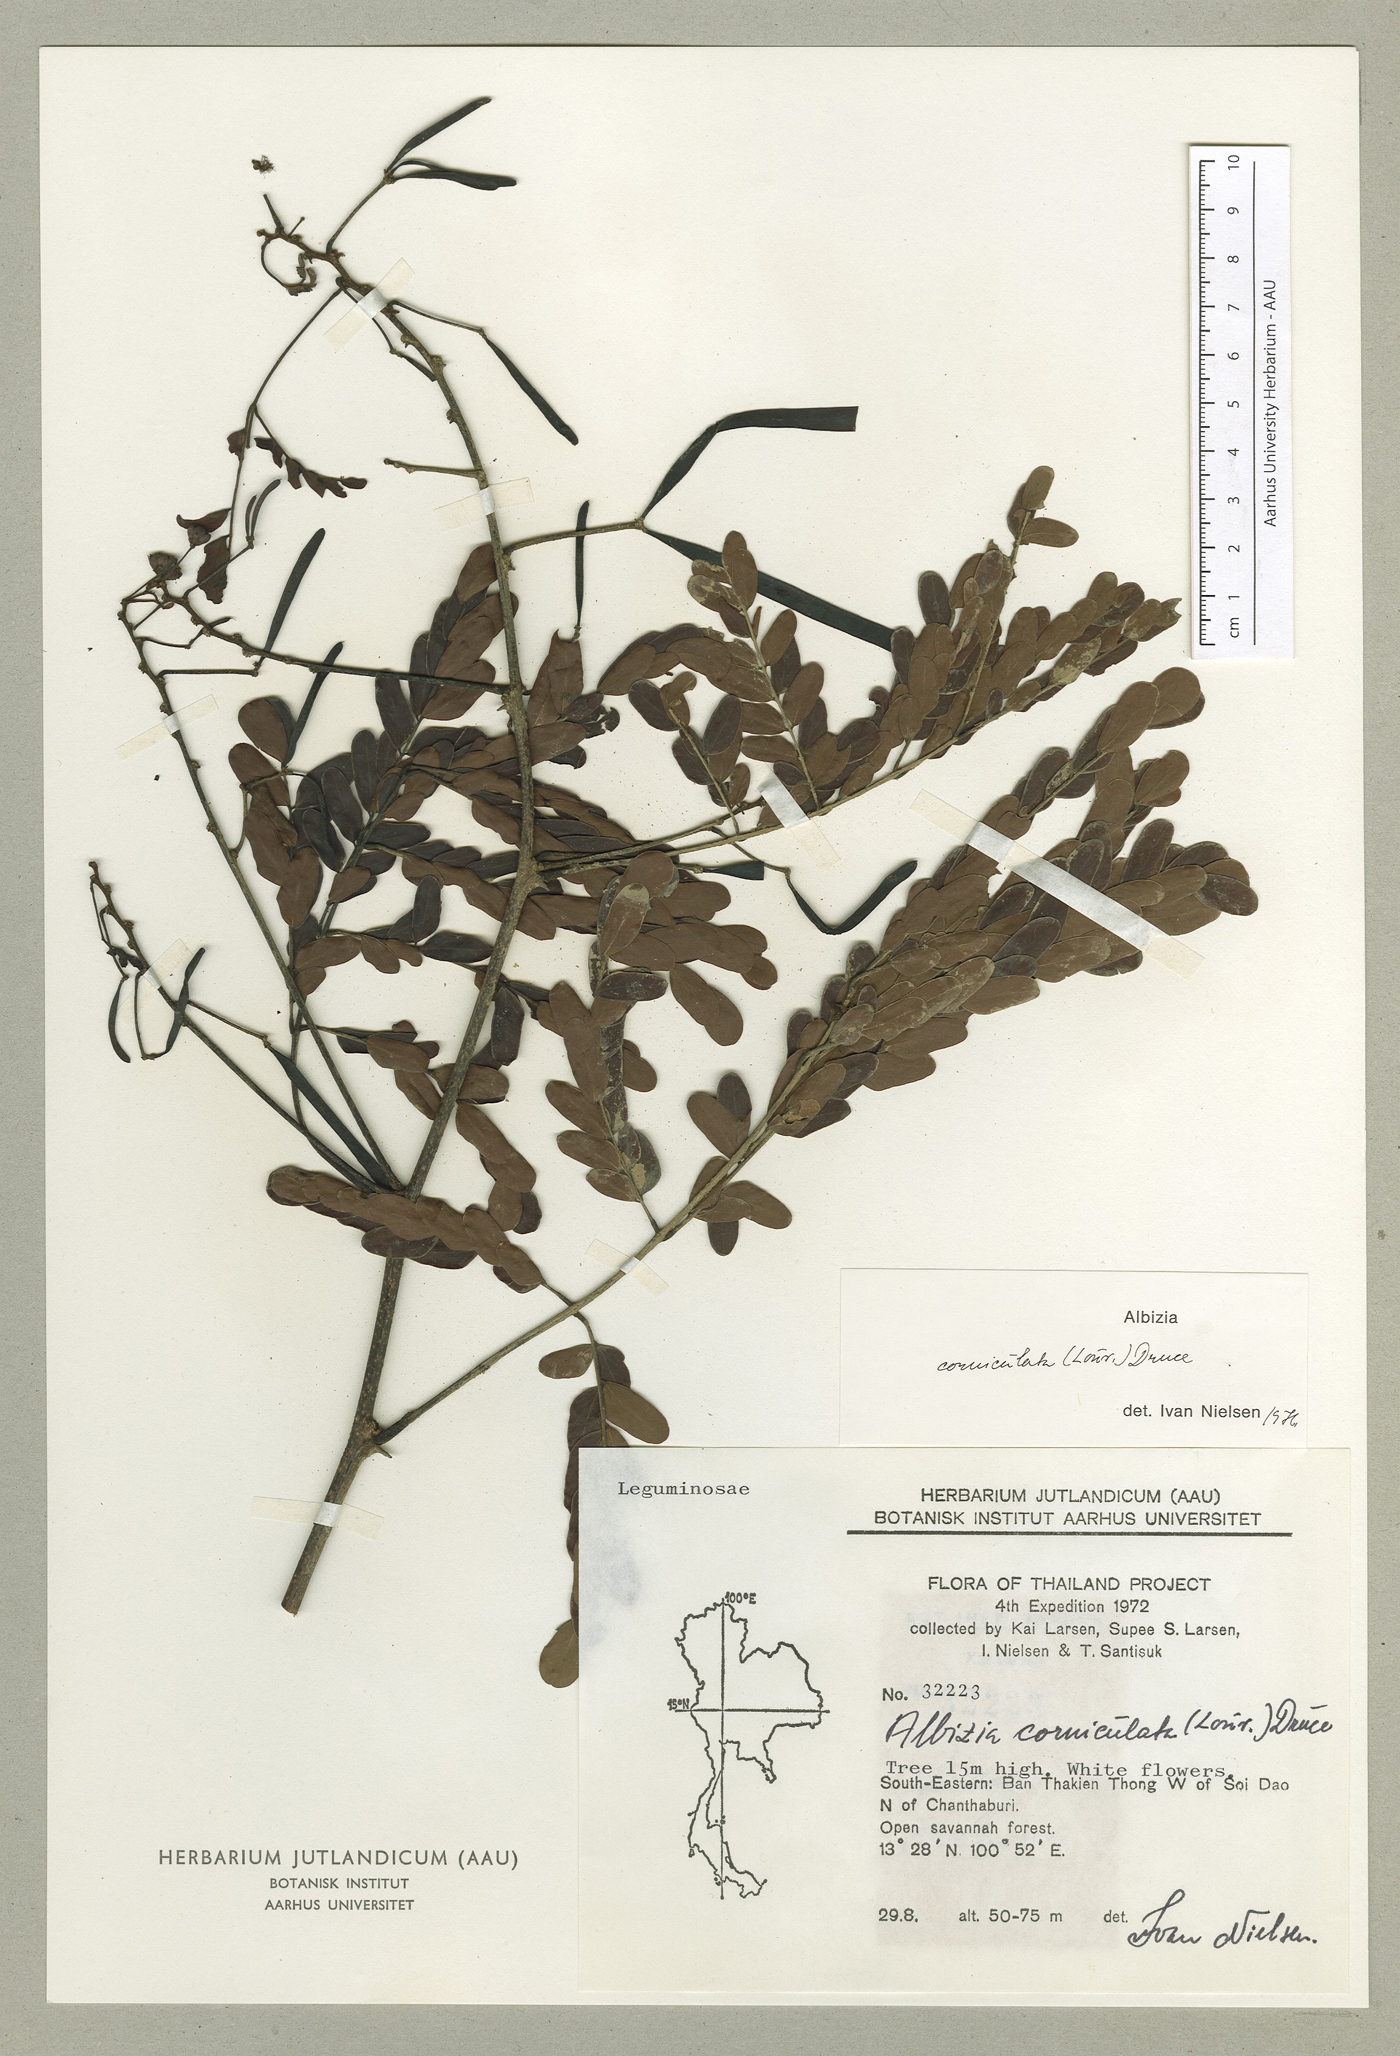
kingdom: Plantae
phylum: Tracheophyta
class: Magnoliopsida
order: Fabales
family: Fabaceae
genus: Albizia
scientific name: Albizia corniculata
